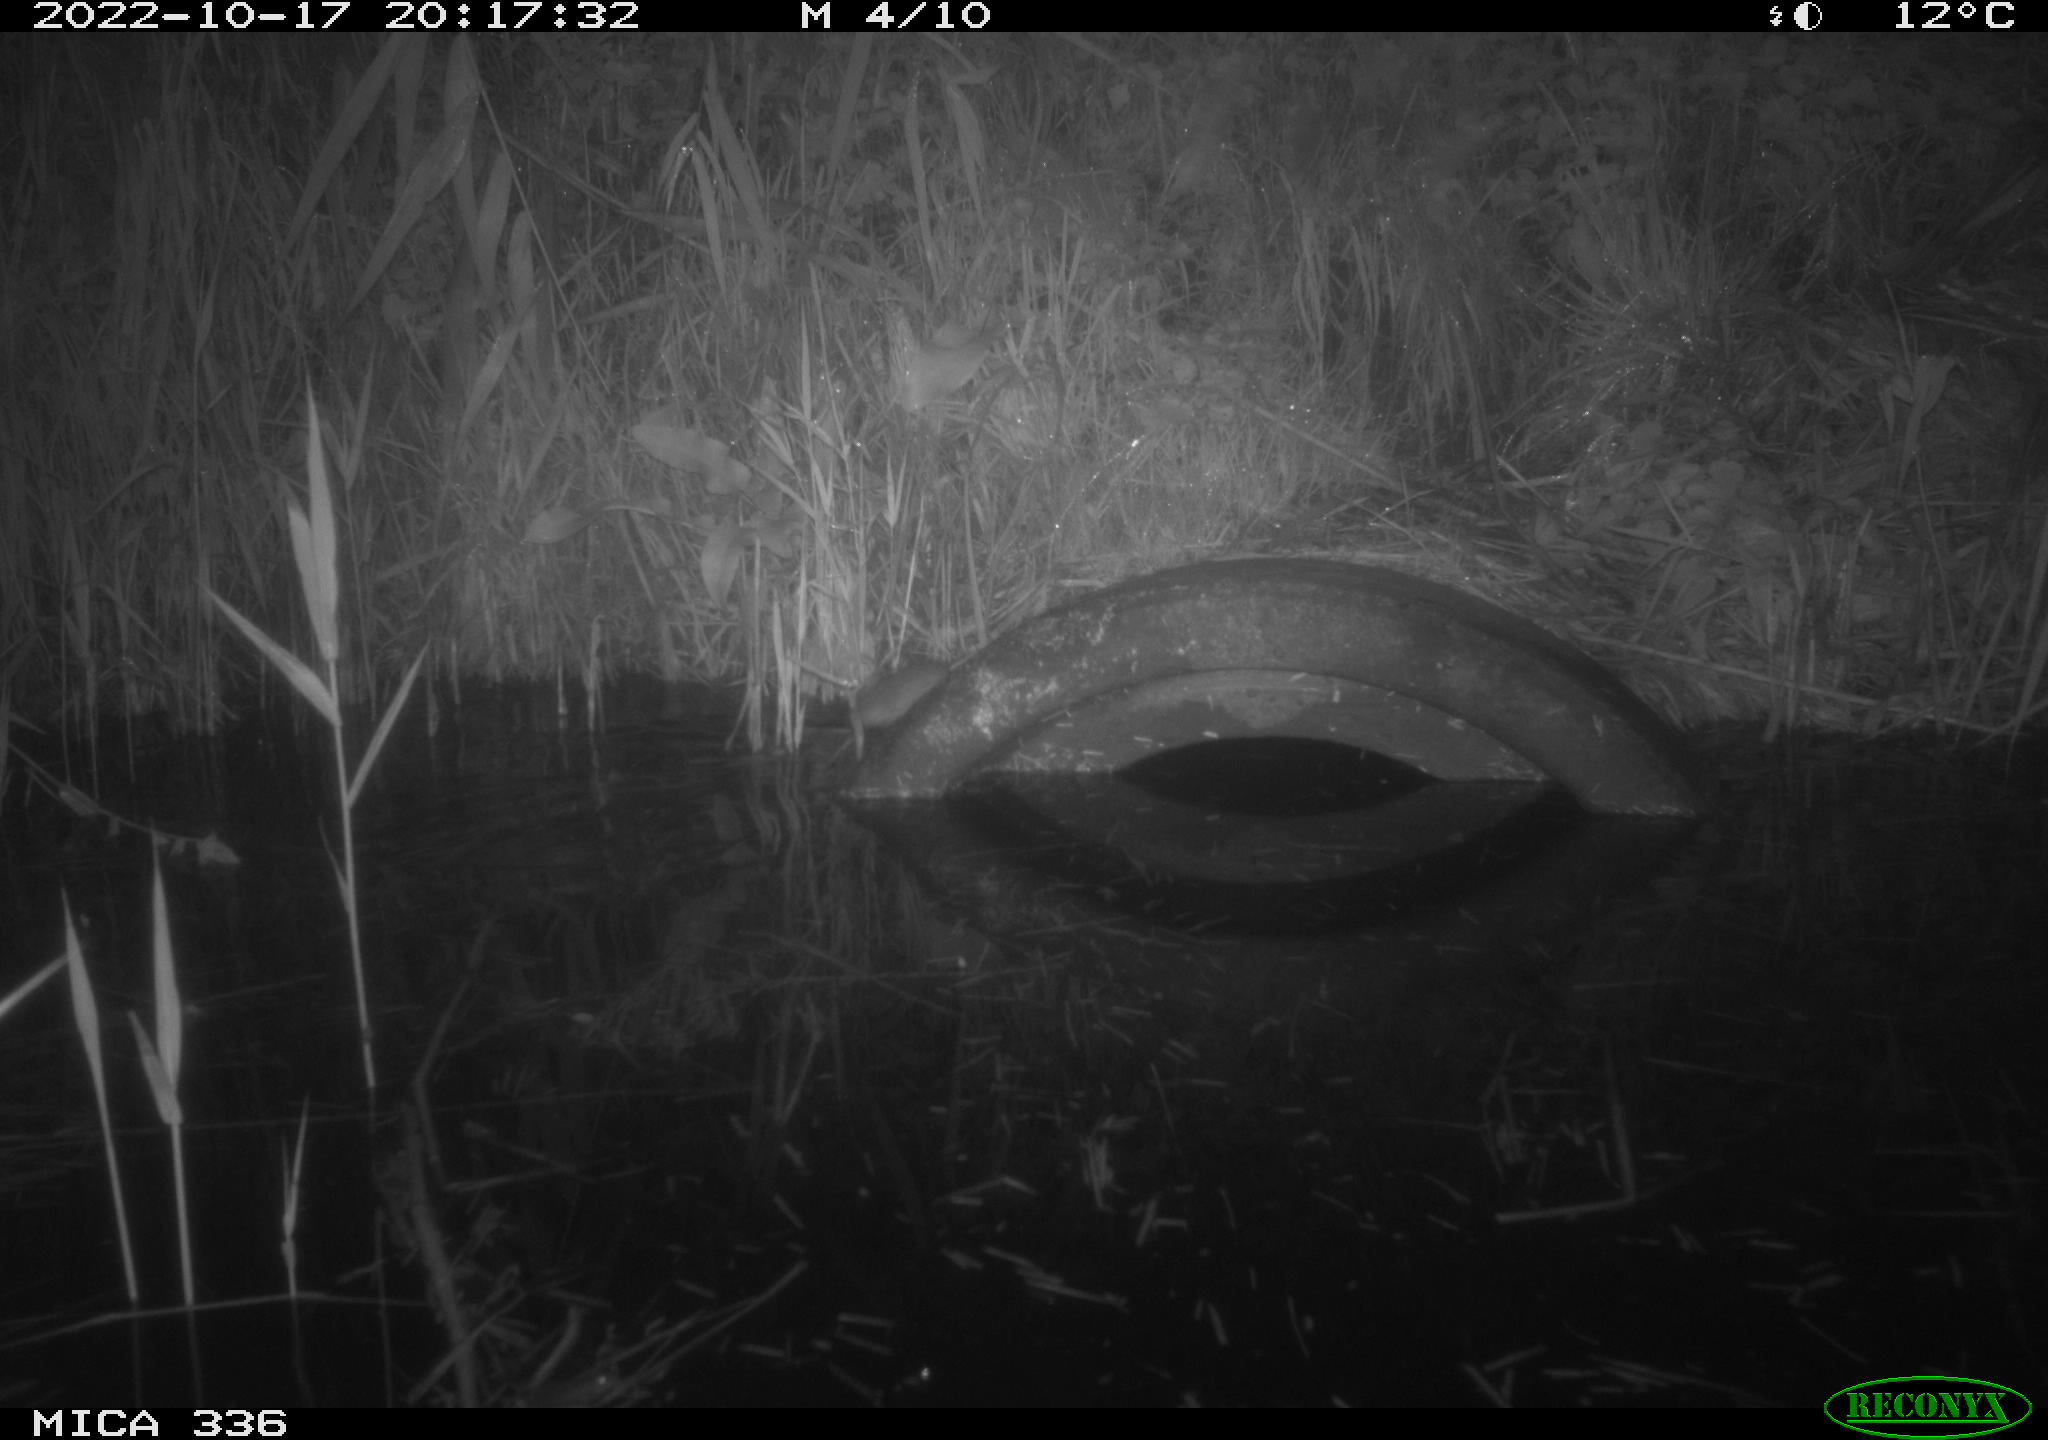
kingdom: Animalia
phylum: Chordata
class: Mammalia
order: Rodentia
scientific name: Rodentia
